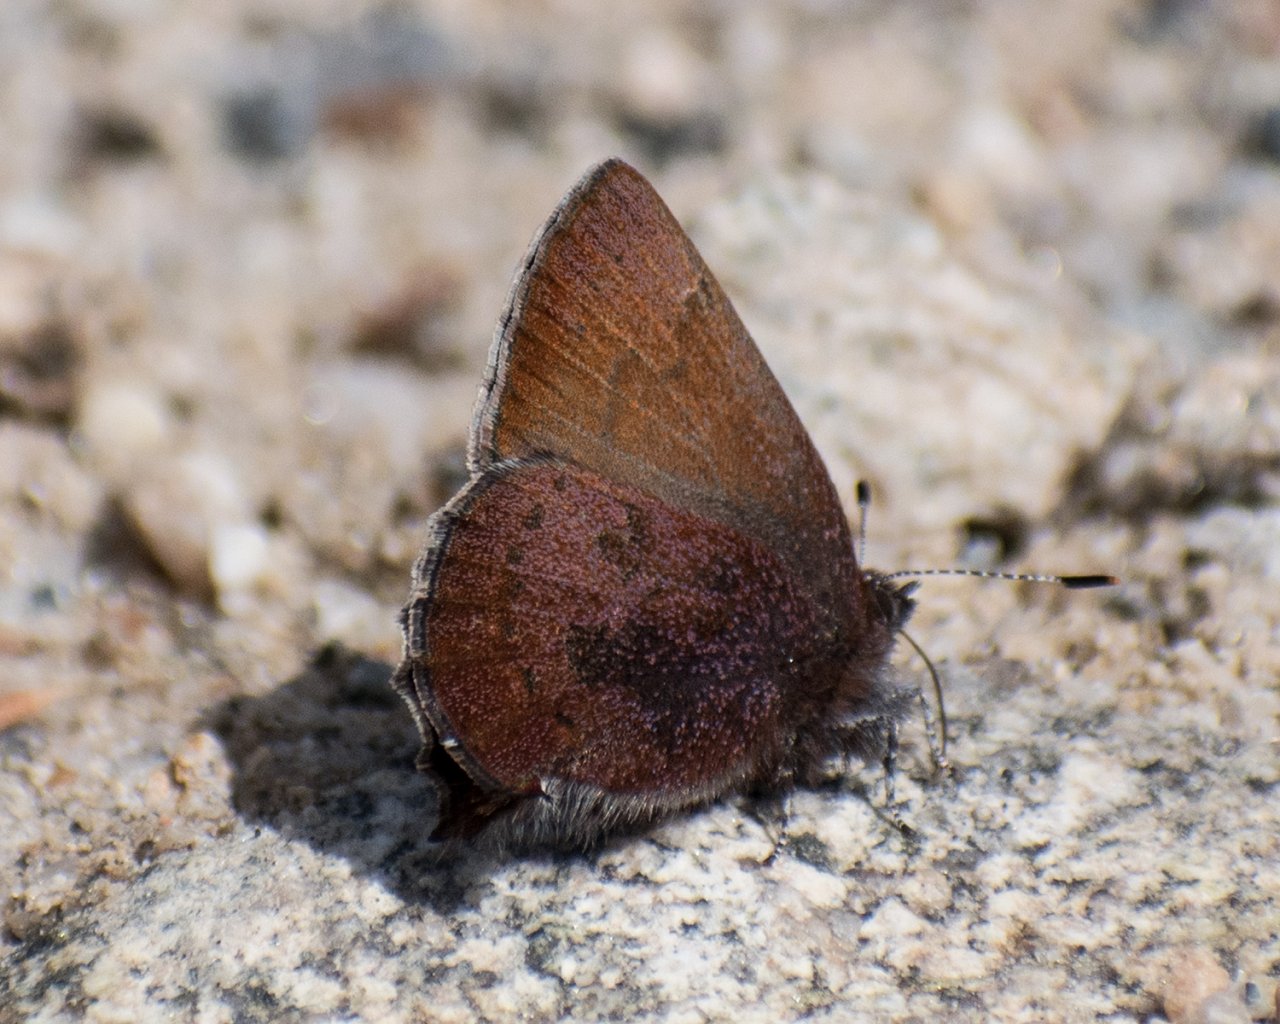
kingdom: Animalia
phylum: Arthropoda
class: Insecta
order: Lepidoptera
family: Lycaenidae
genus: Incisalia
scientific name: Incisalia irioides
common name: Brown Elfin
